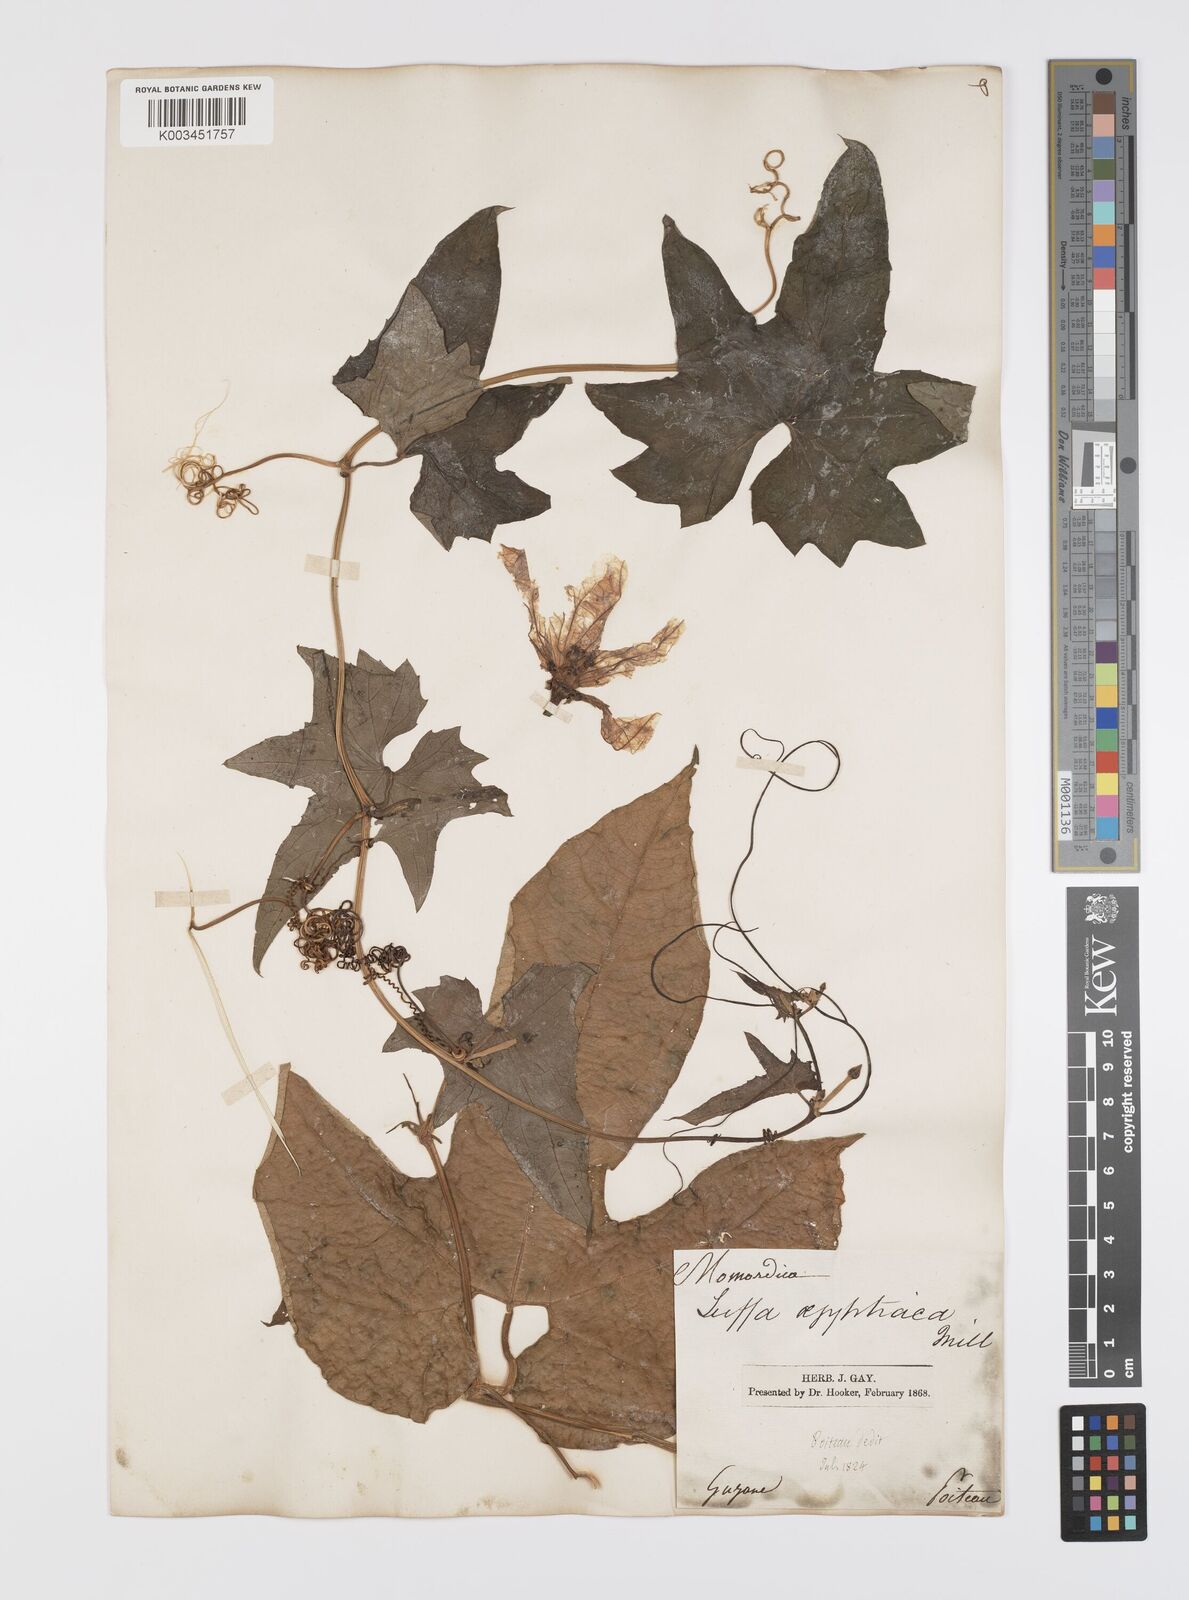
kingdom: Plantae
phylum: Tracheophyta
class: Magnoliopsida
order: Cucurbitales
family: Cucurbitaceae
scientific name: Cucurbitaceae
